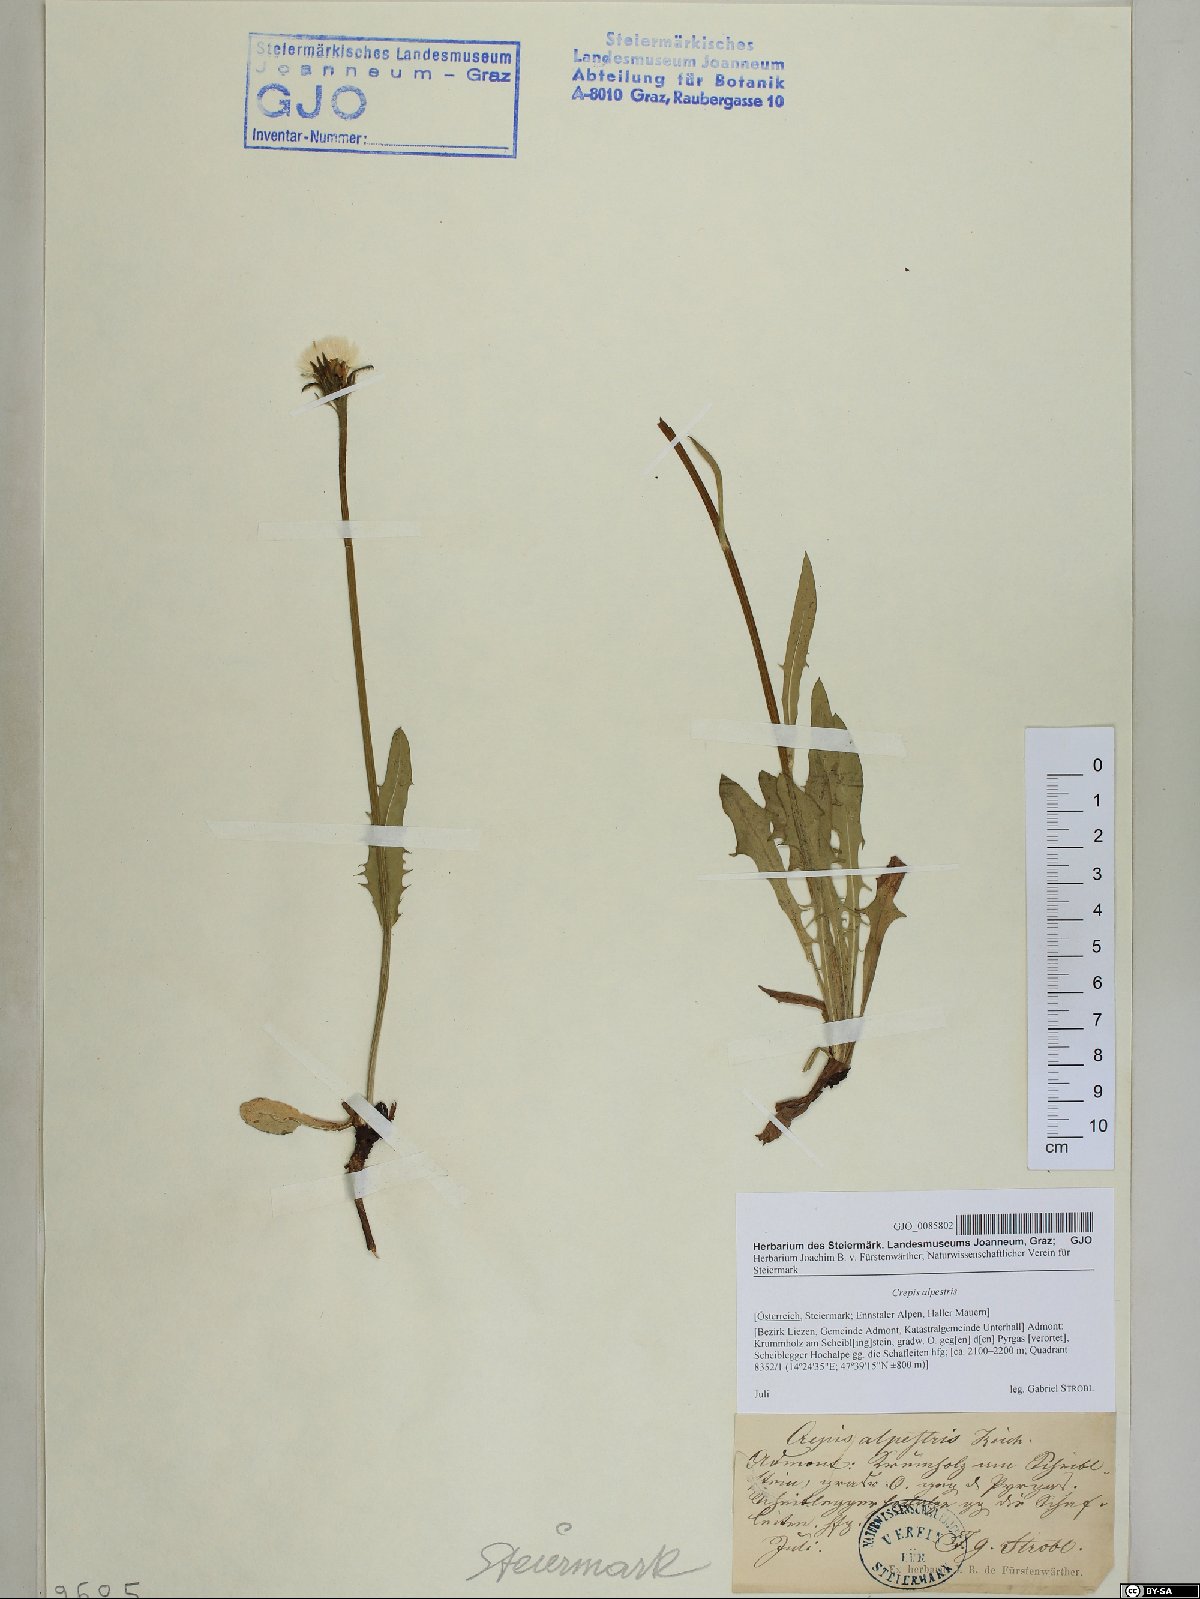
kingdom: Plantae
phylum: Tracheophyta
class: Magnoliopsida
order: Asterales
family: Asteraceae
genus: Crepis
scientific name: Crepis alpestris
